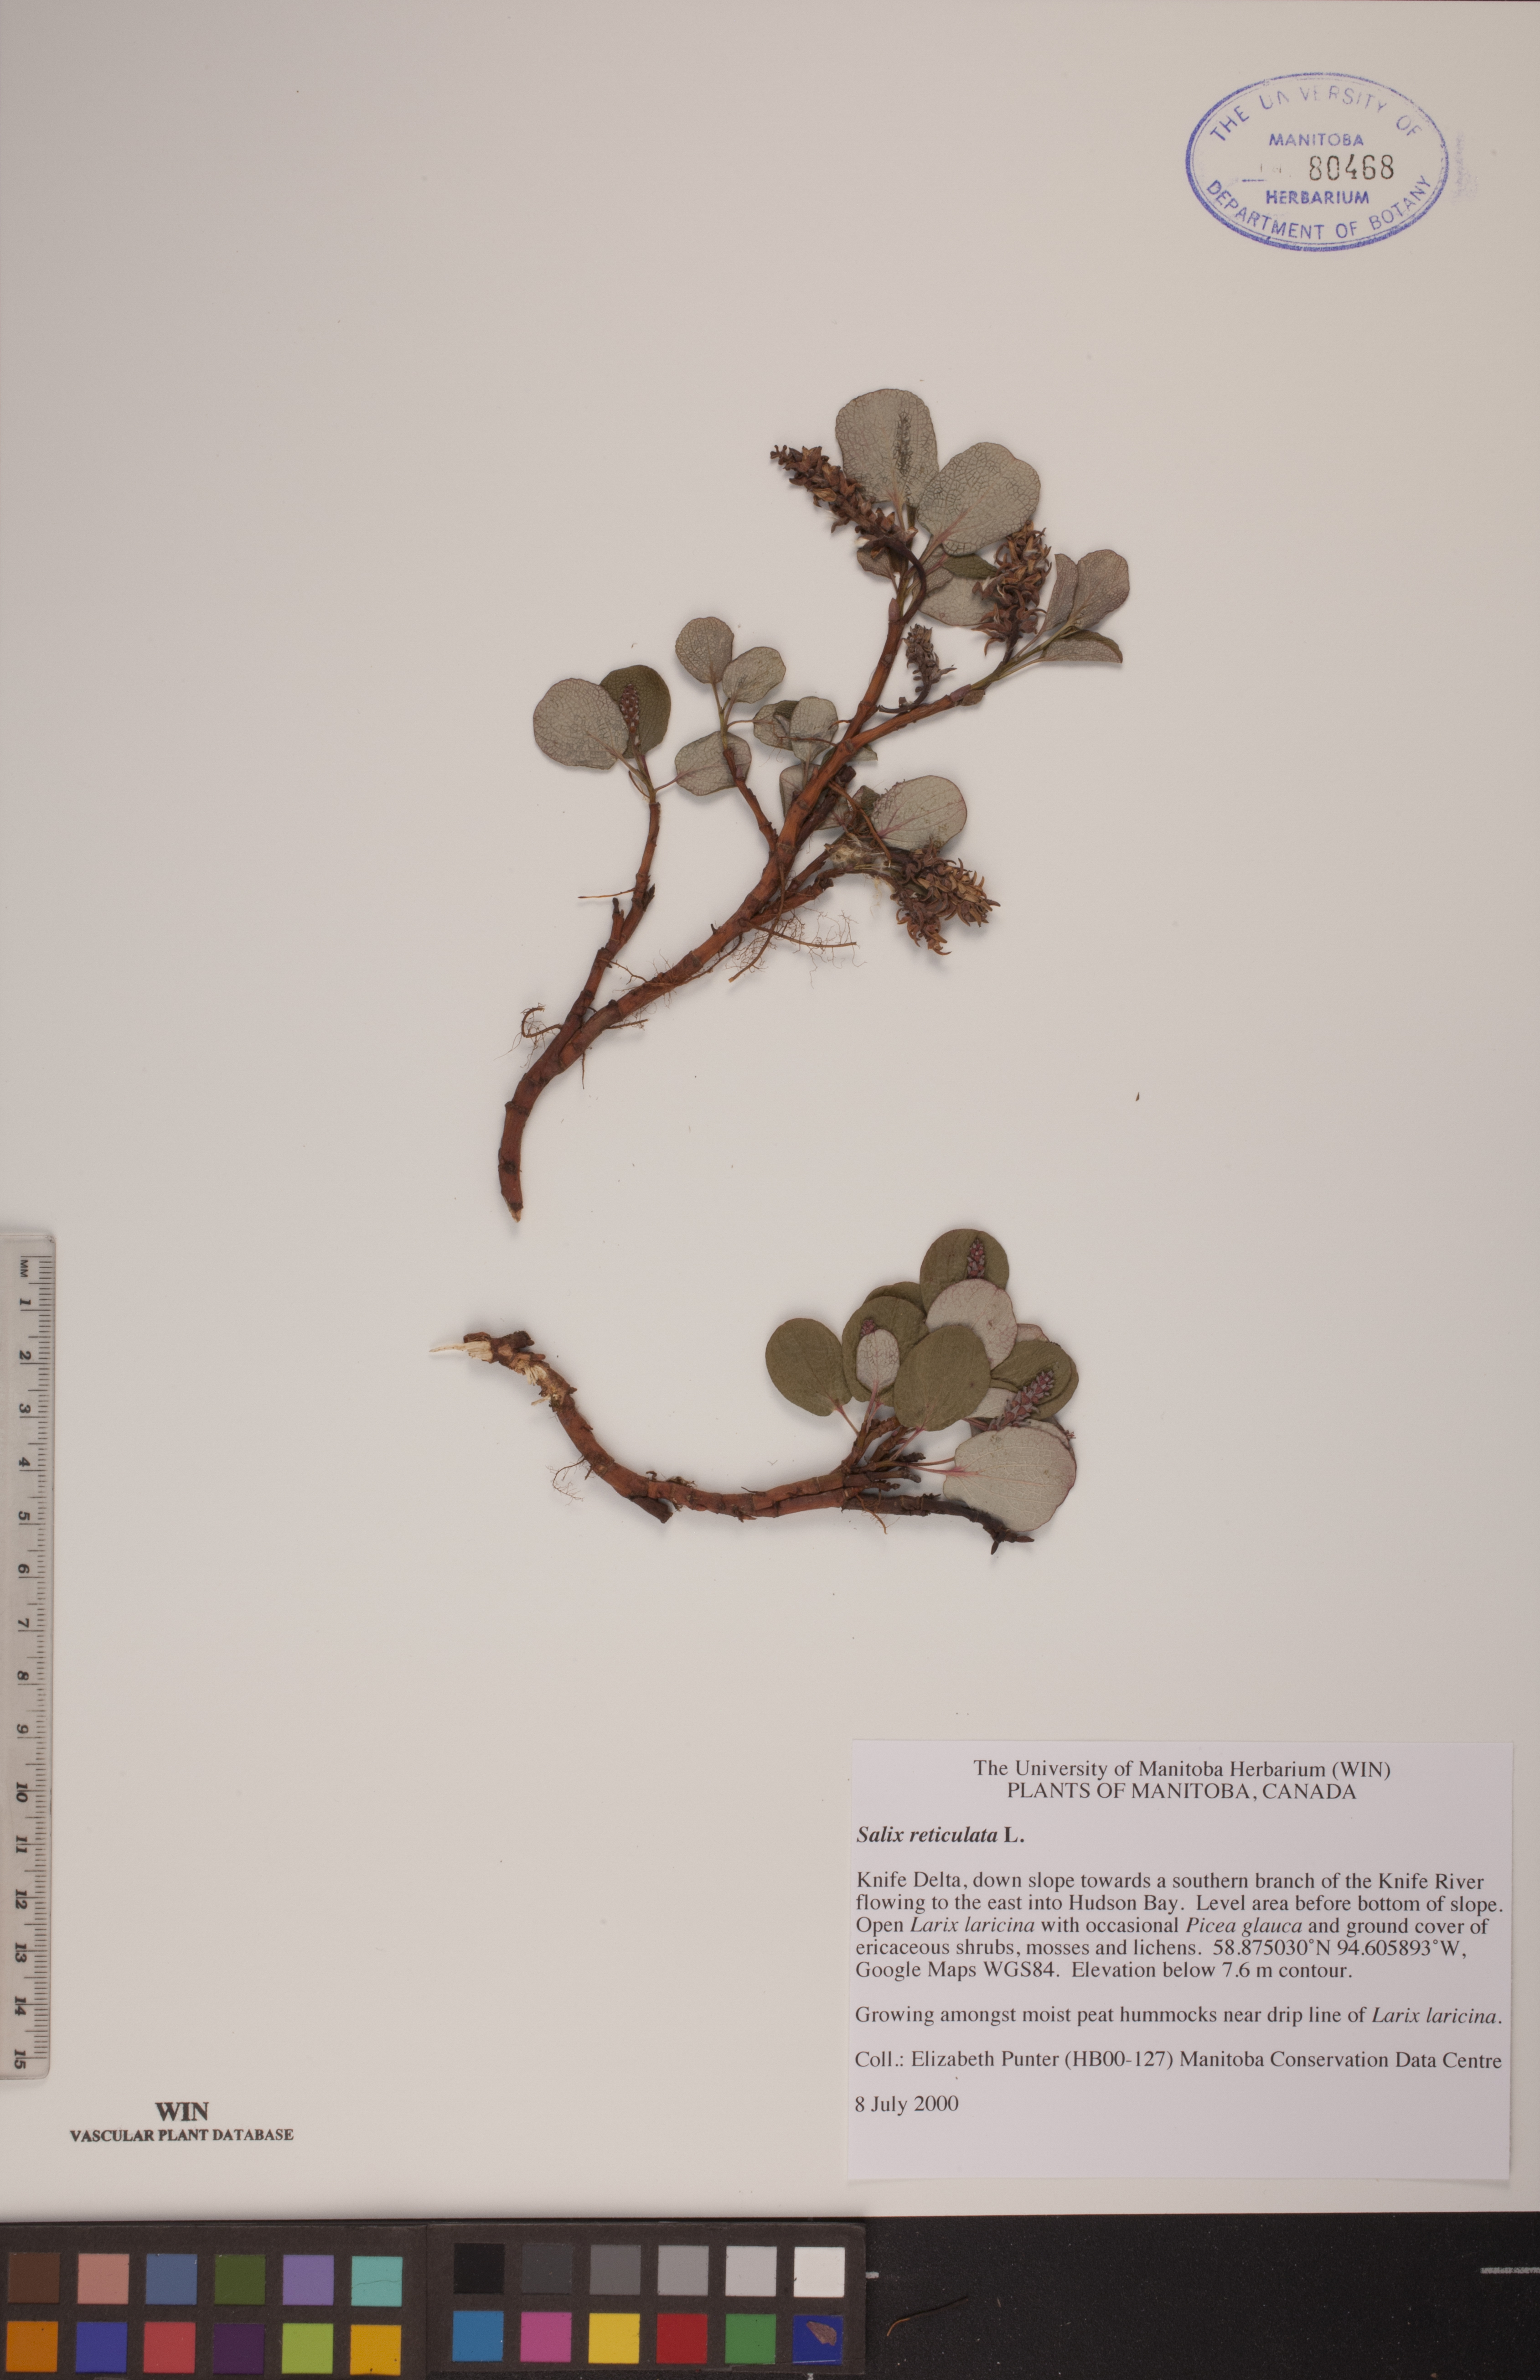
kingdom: Plantae
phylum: Tracheophyta
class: Magnoliopsida
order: Malpighiales
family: Salicaceae
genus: Salix
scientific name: Salix reticulata
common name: Net-leaved willow
